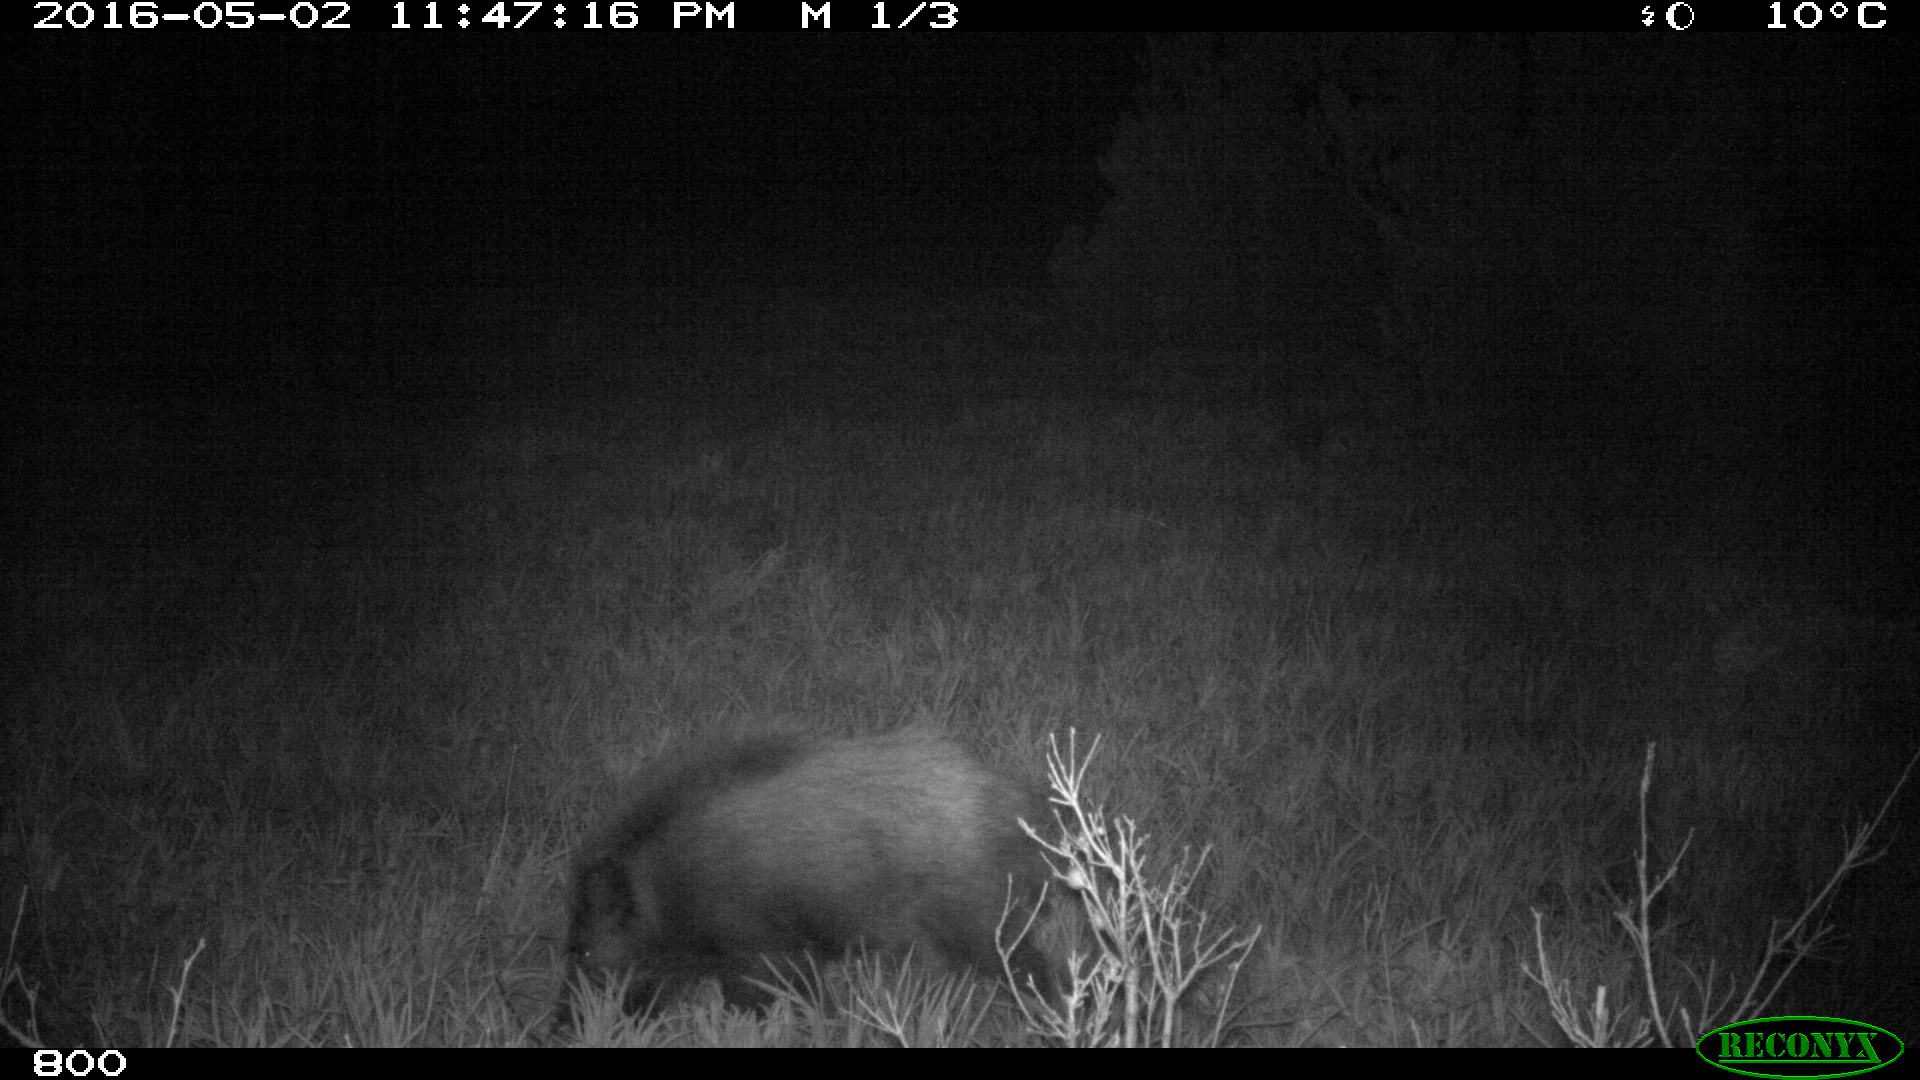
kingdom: Animalia
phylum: Chordata
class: Mammalia
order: Artiodactyla
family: Suidae
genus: Sus
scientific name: Sus scrofa
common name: Wild boar
